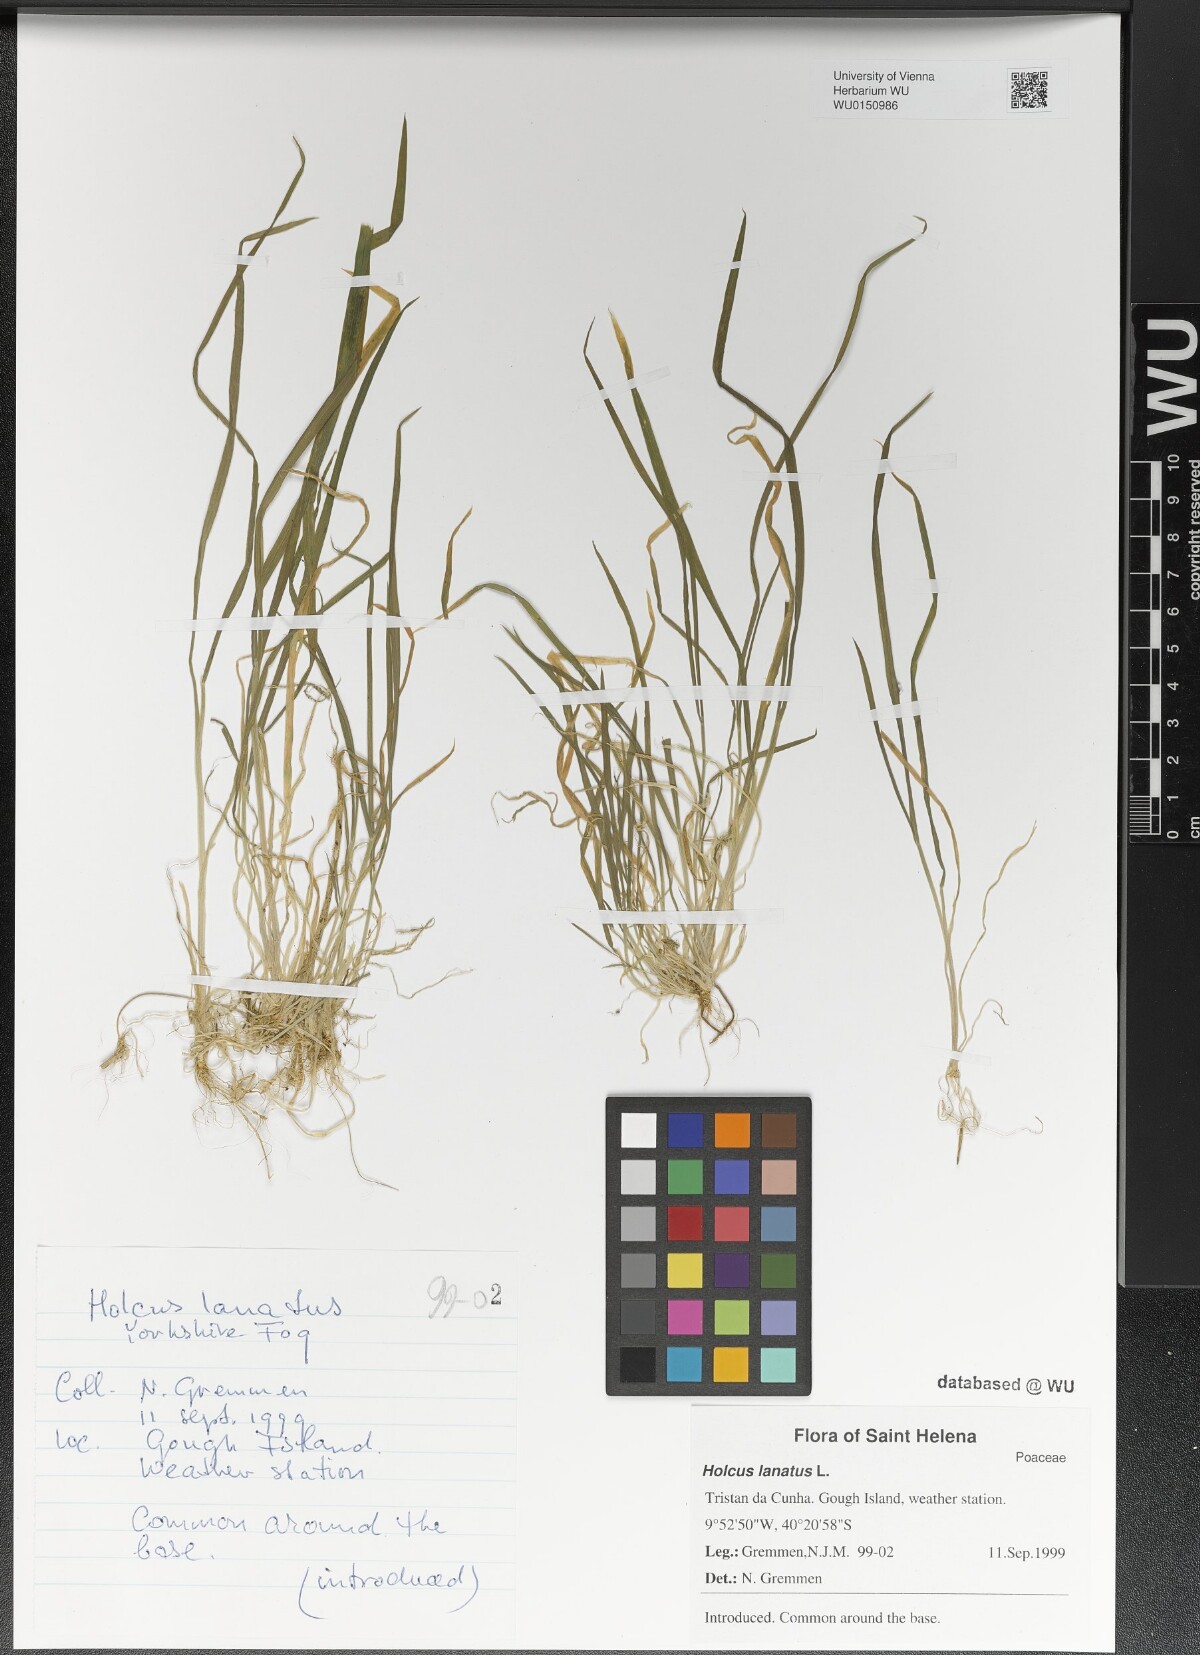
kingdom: Plantae
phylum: Tracheophyta
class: Liliopsida
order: Poales
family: Poaceae
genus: Holcus
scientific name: Holcus lanatus
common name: Yorkshire-fog
